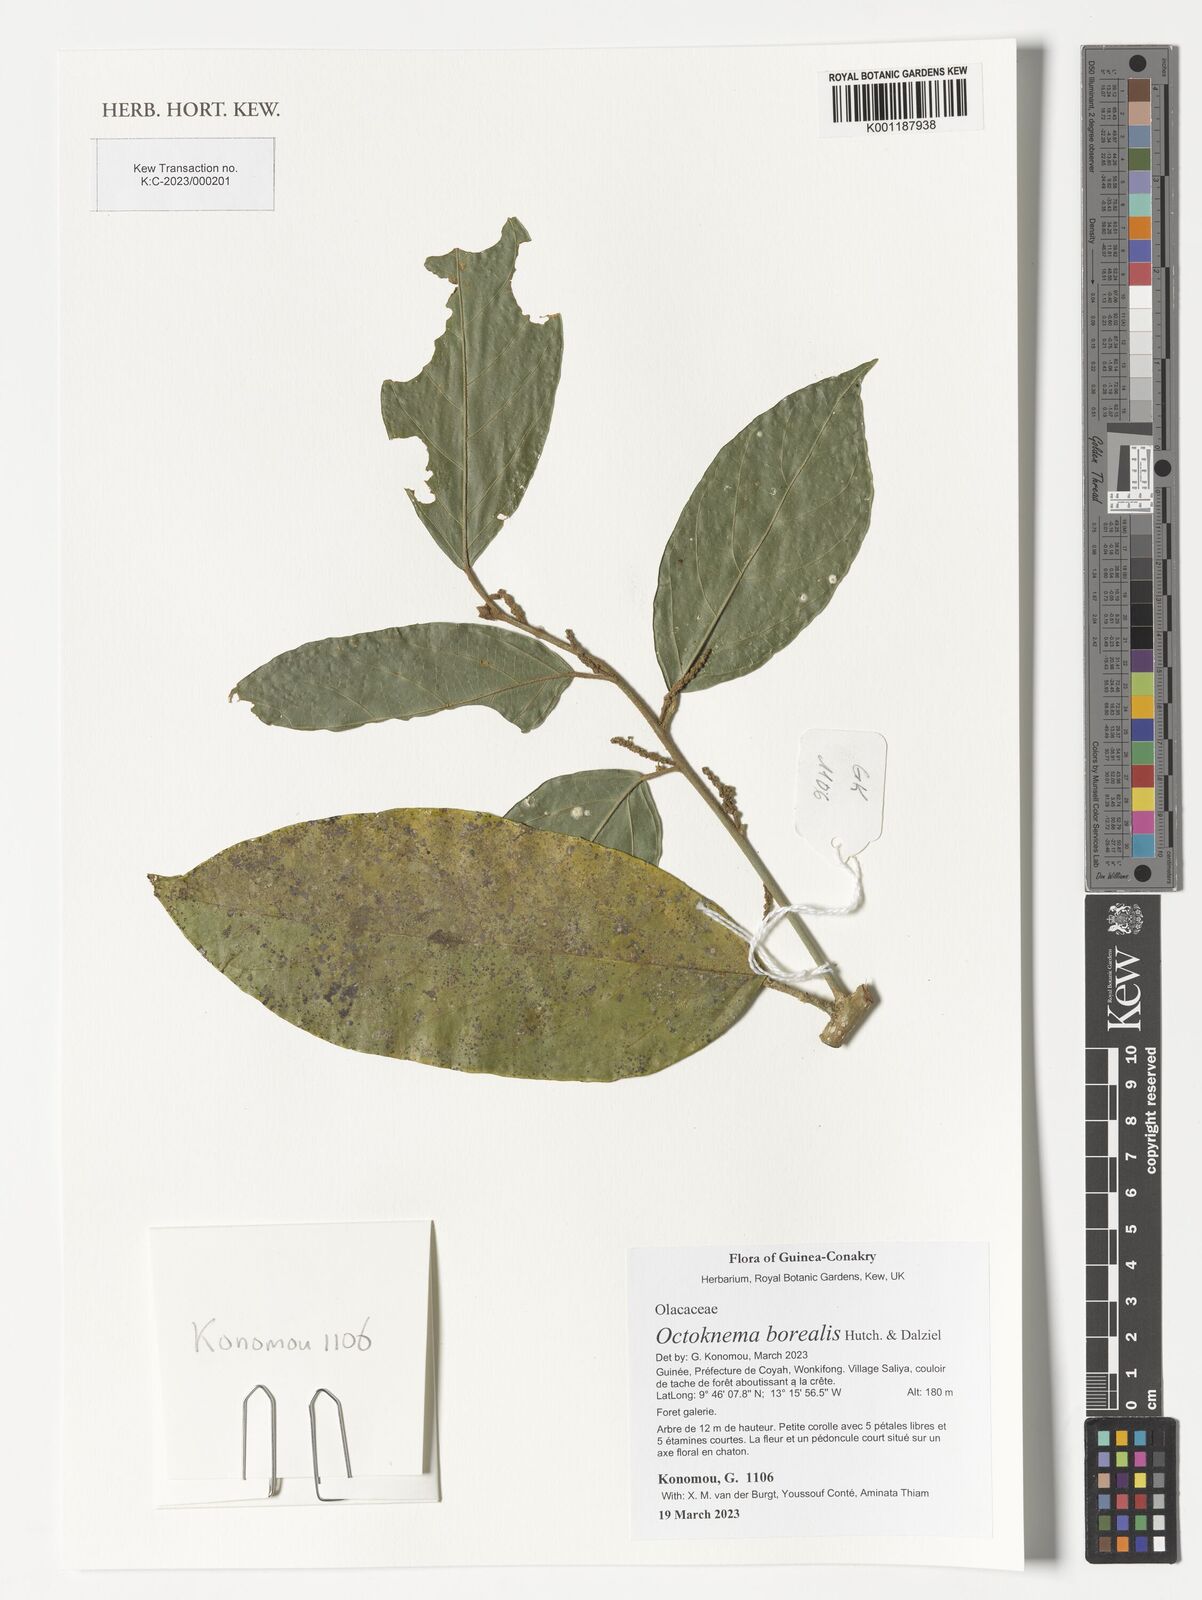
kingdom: Plantae
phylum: Tracheophyta
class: Magnoliopsida
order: Santalales
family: Octoknemaceae
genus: Octoknema
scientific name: Octoknema borealis
